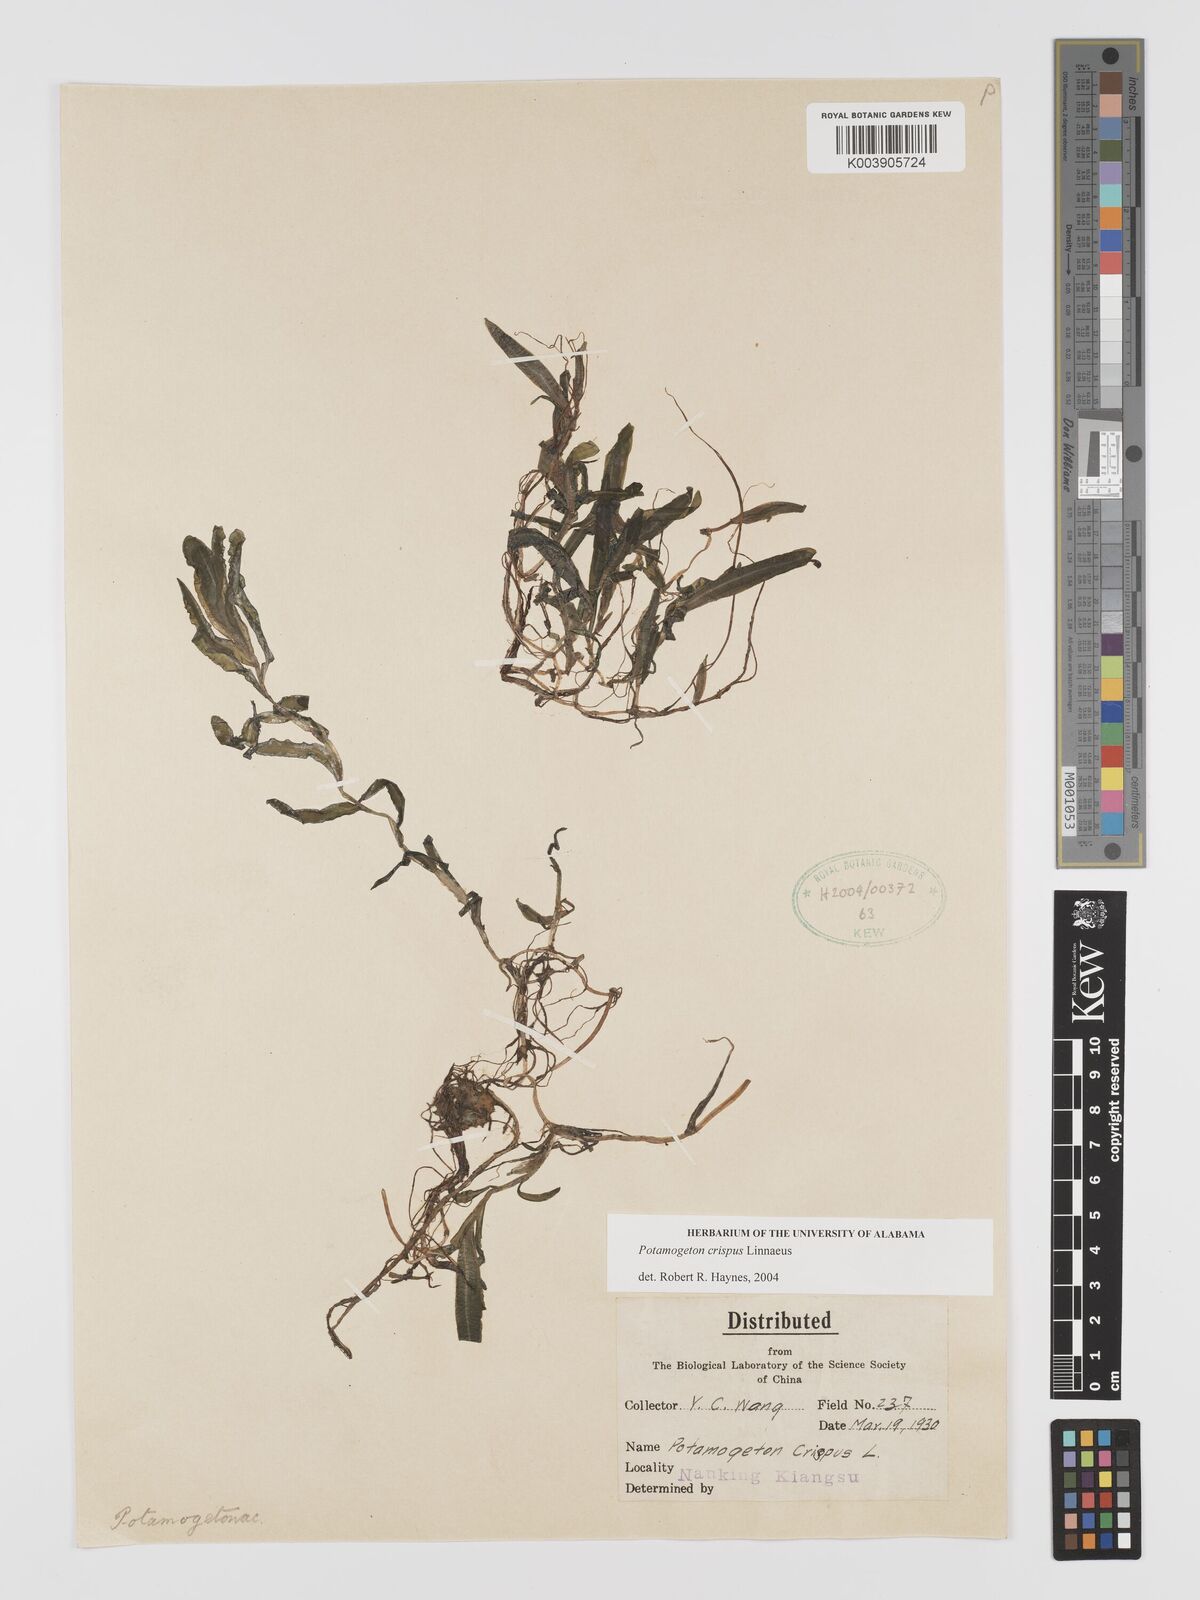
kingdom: Plantae
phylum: Tracheophyta
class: Liliopsida
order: Alismatales
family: Potamogetonaceae
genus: Potamogeton
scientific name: Potamogeton crispus
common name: Curled pondweed
